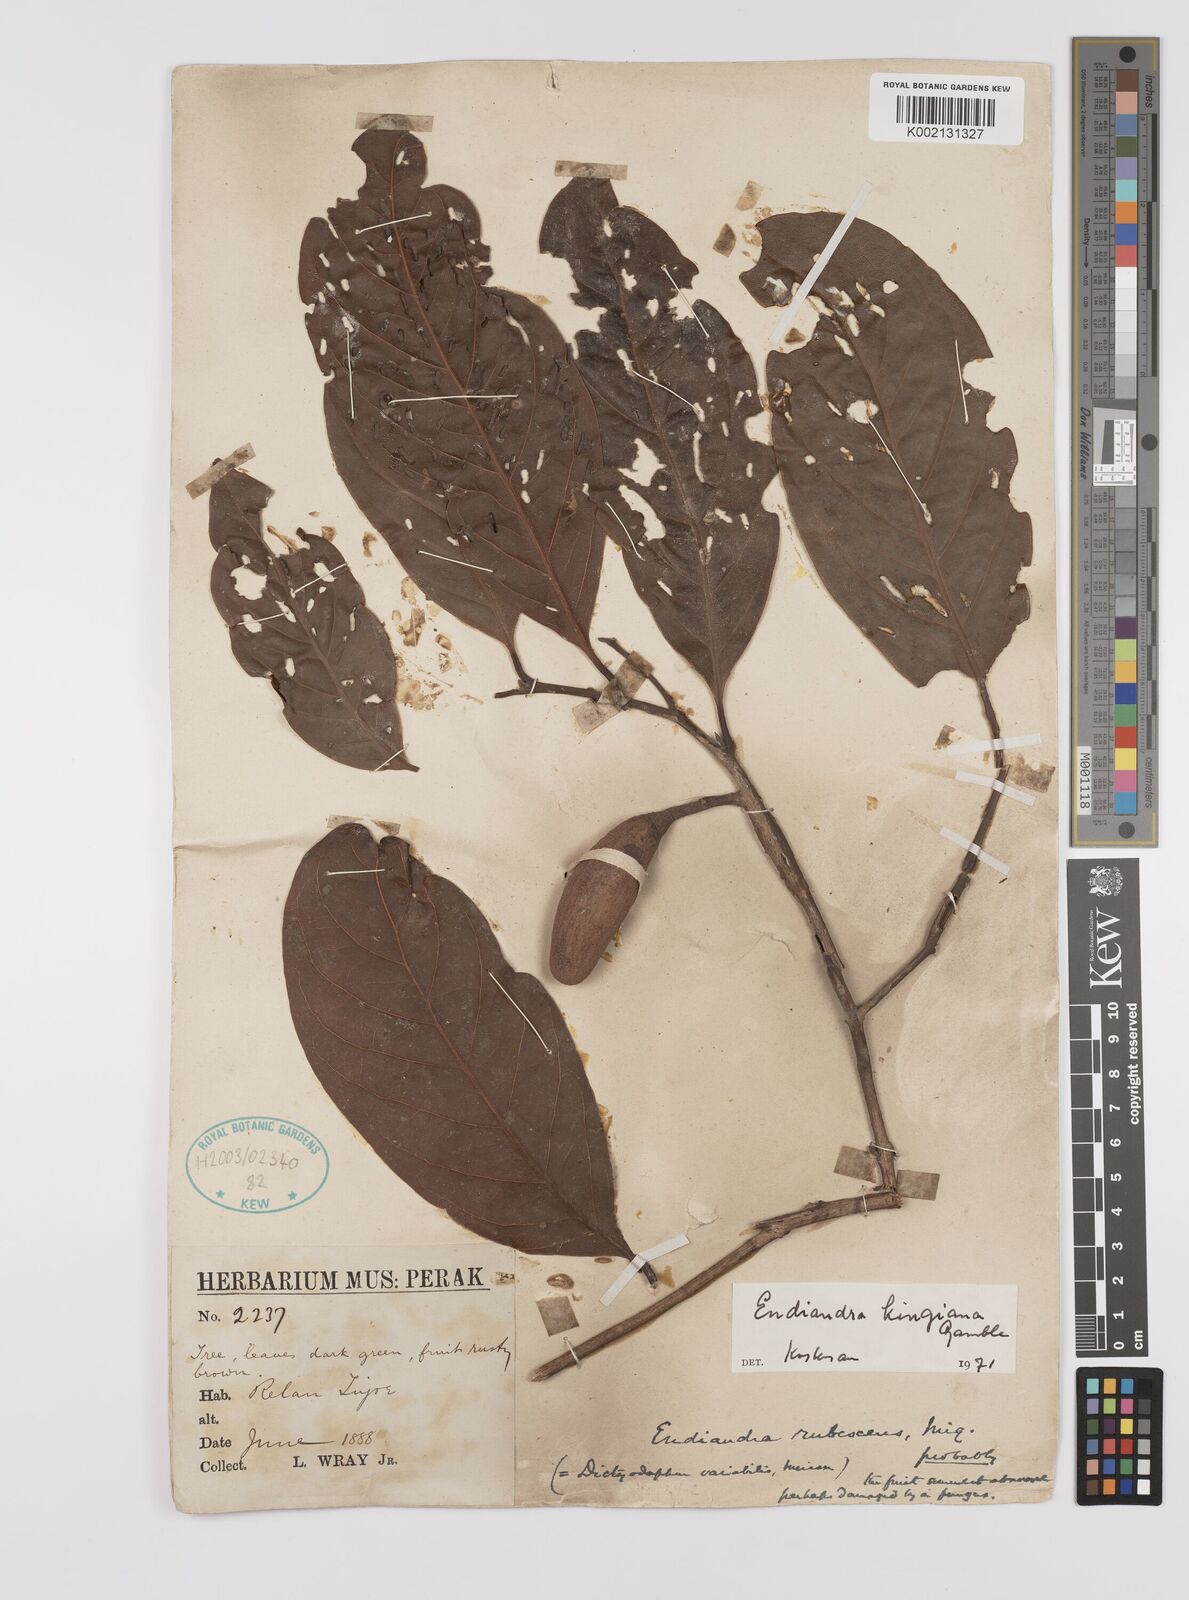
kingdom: Plantae
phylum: Tracheophyta
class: Magnoliopsida
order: Laurales
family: Lauraceae
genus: Endiandra
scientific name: Endiandra kingiana
